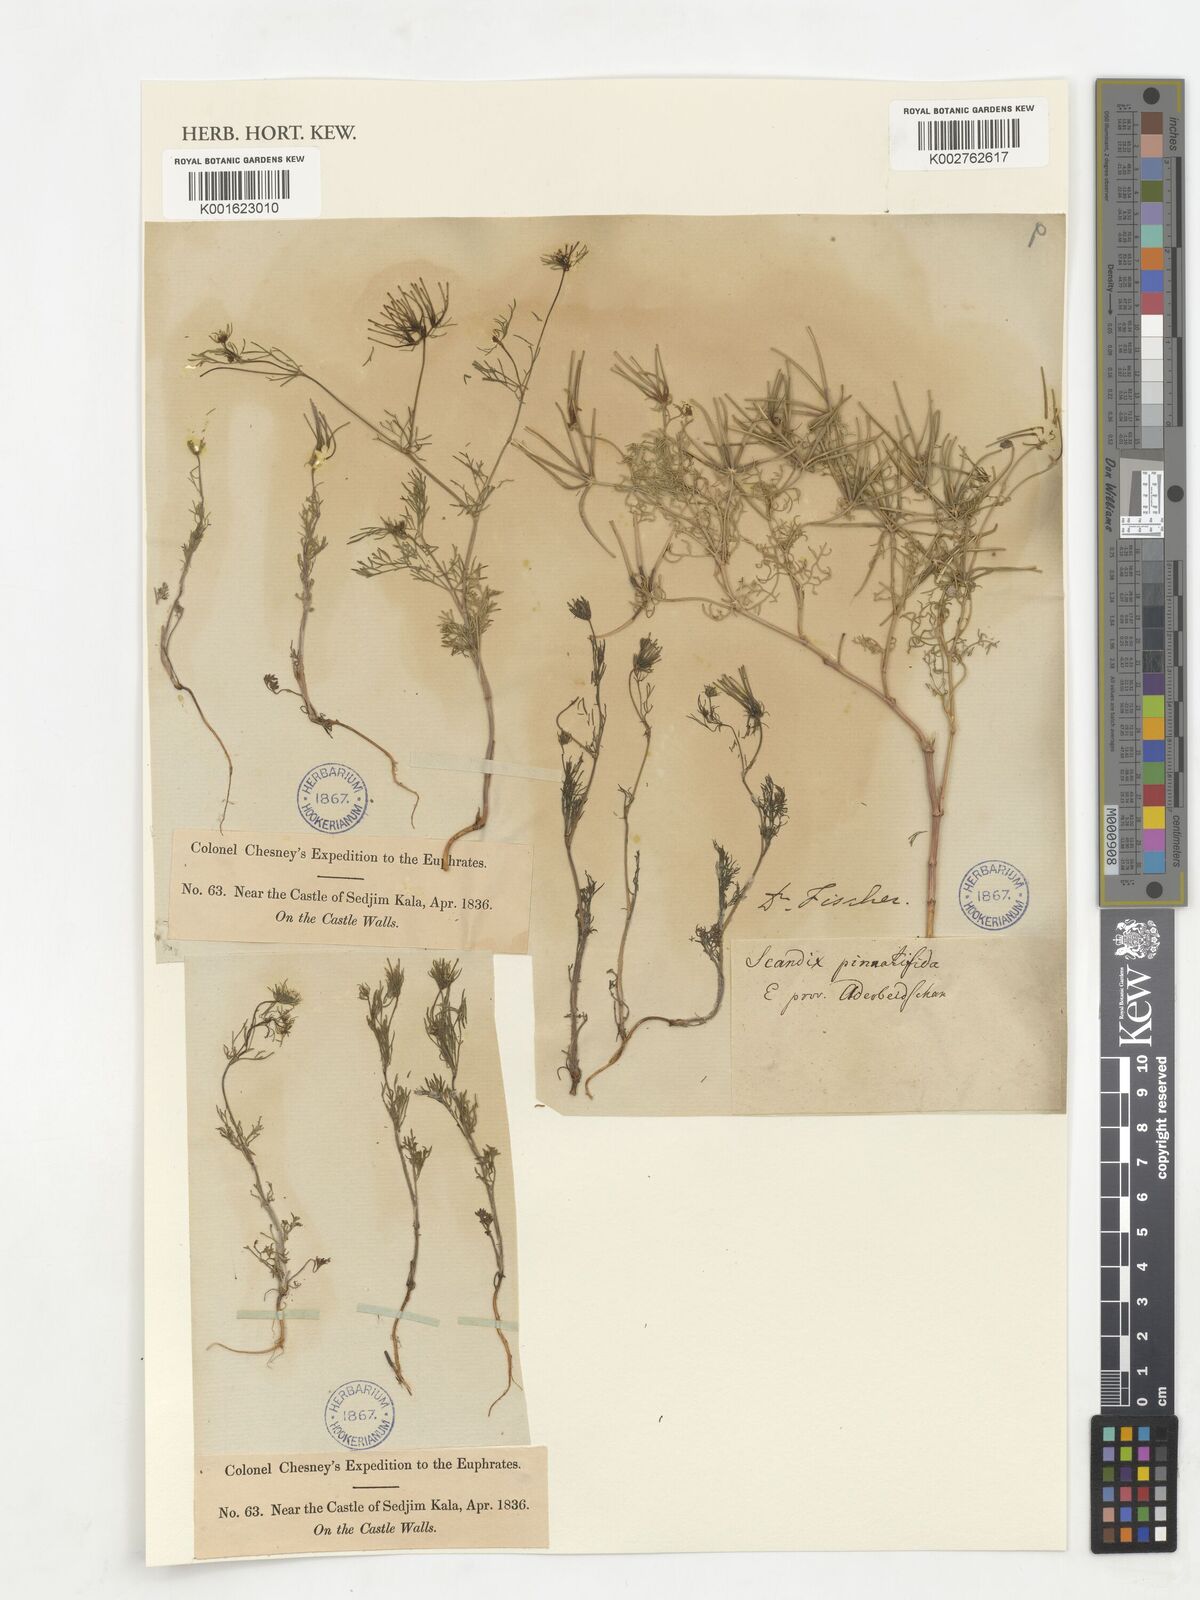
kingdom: Plantae
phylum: Tracheophyta
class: Magnoliopsida
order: Apiales
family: Apiaceae
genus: Scandix
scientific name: Scandix stellata
